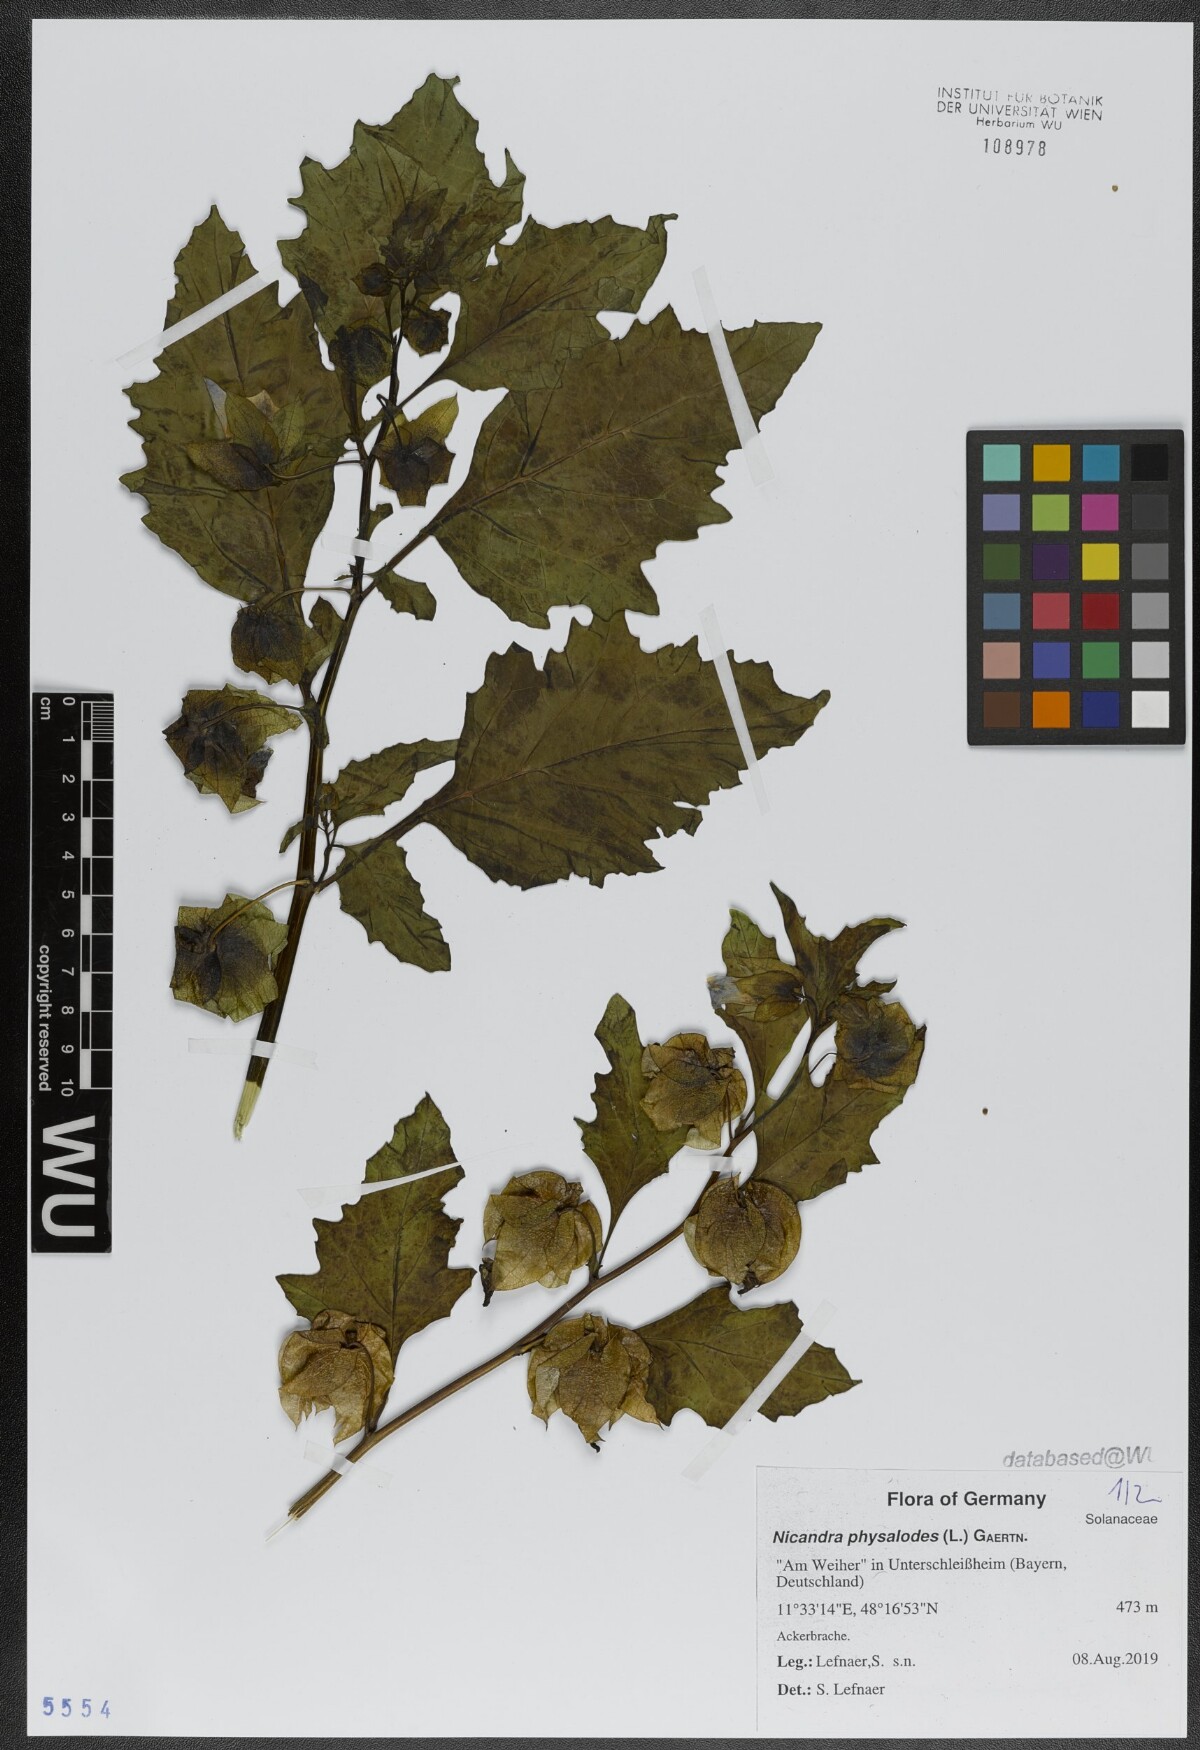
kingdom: Plantae
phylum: Tracheophyta
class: Magnoliopsida
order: Solanales
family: Solanaceae
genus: Nicandra
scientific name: Nicandra physalodes
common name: Apple-of-peru
